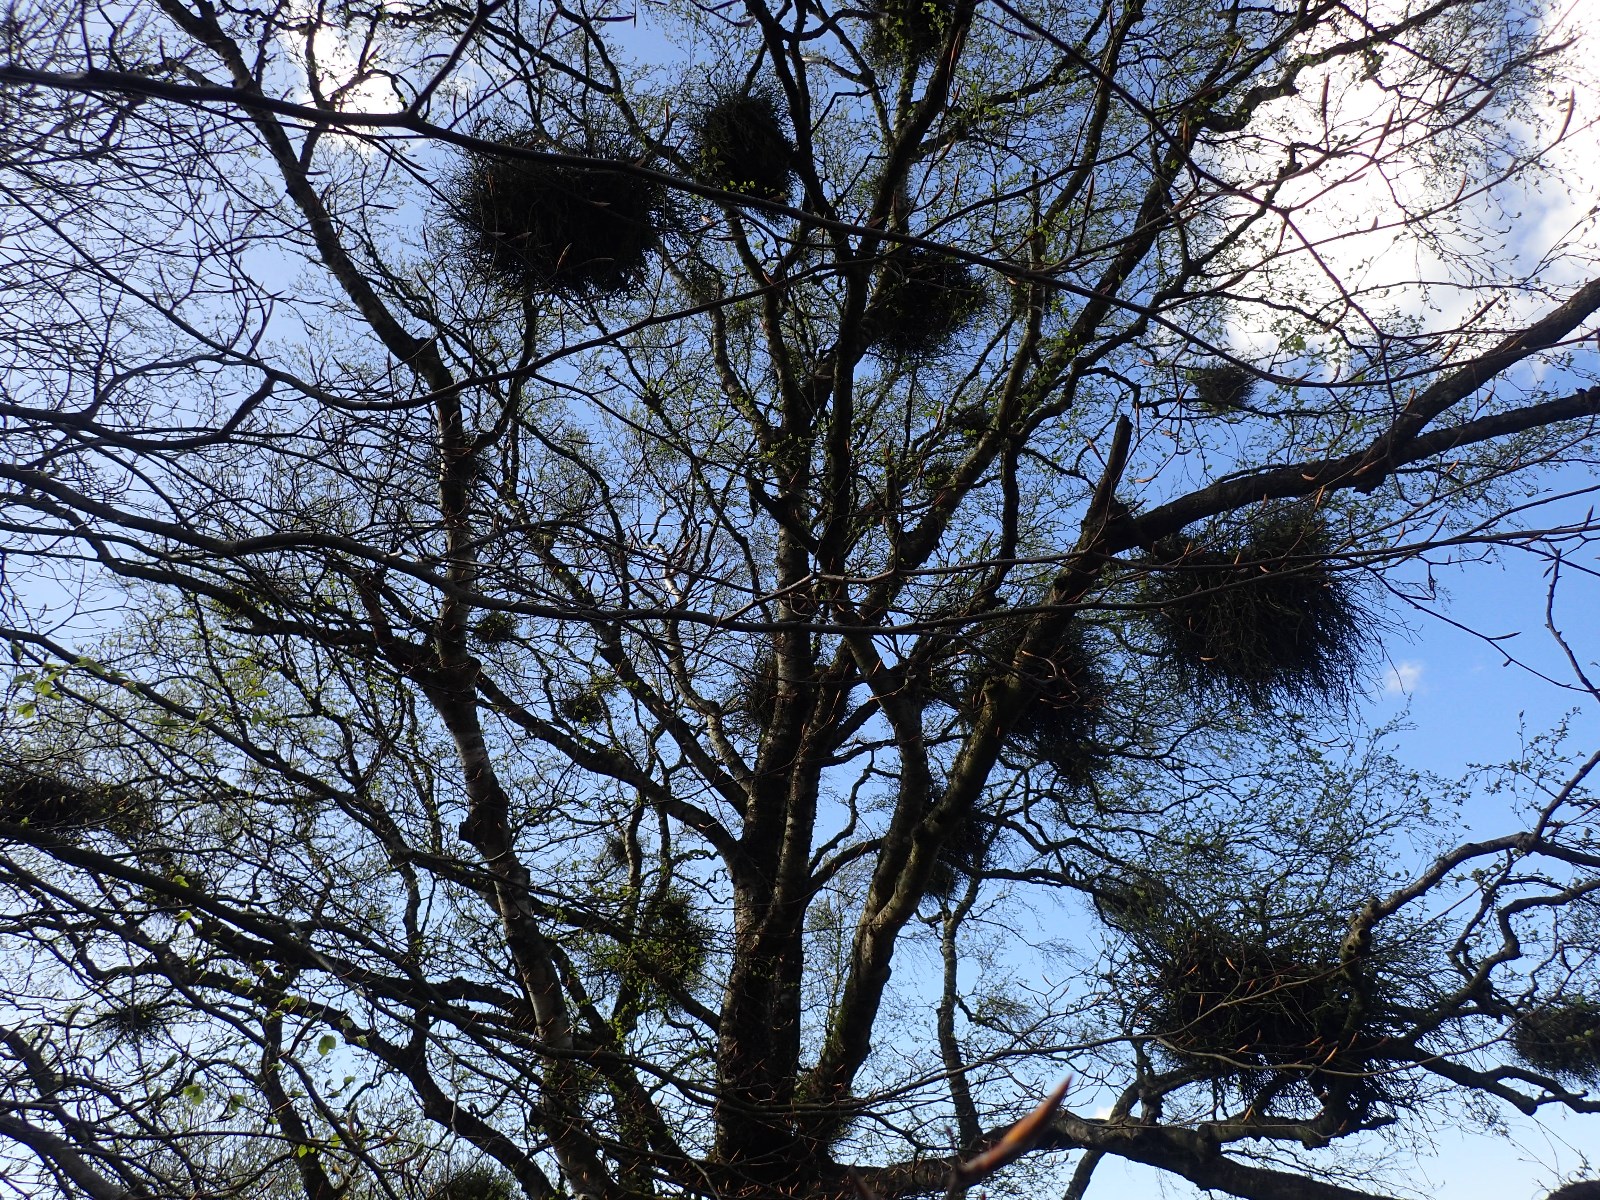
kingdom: Fungi
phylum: Ascomycota
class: Taphrinomycetes
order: Taphrinales
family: Taphrinaceae
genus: Taphrina
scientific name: Taphrina betulina
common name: hekse-sækdug
